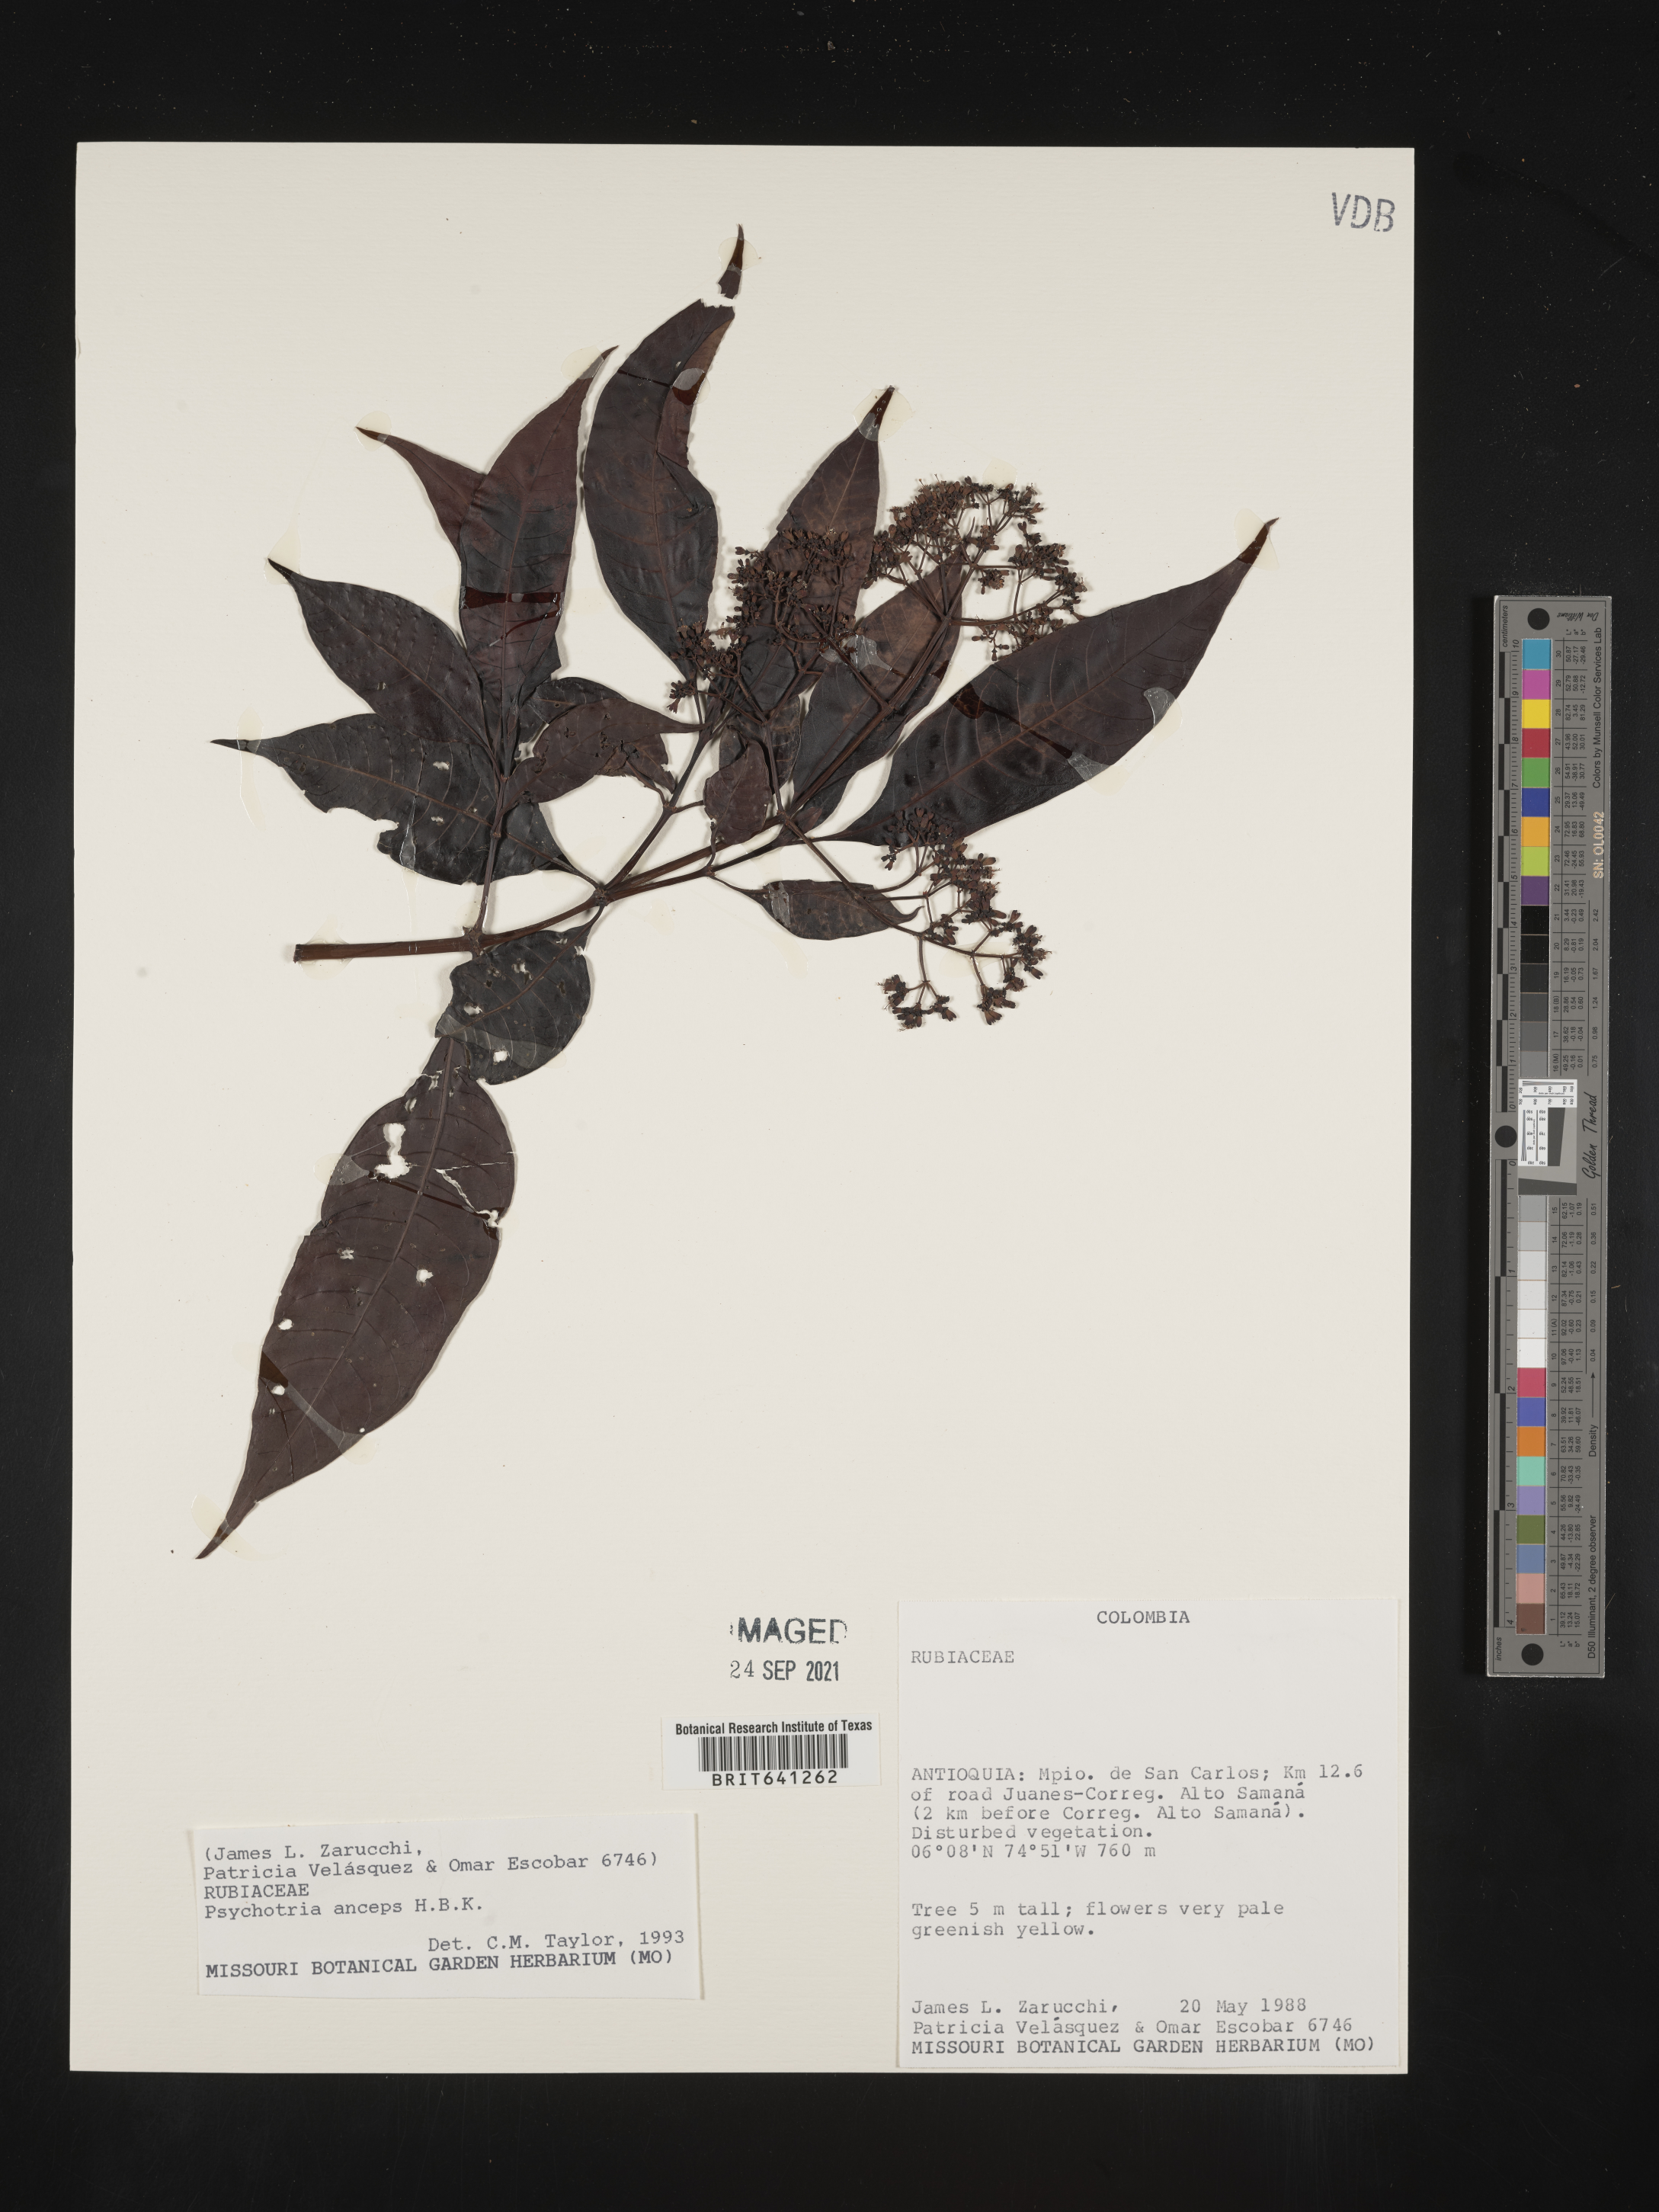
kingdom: Plantae
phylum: Tracheophyta
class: Magnoliopsida
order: Gentianales
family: Rubiaceae
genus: Psychotria
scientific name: Psychotria
